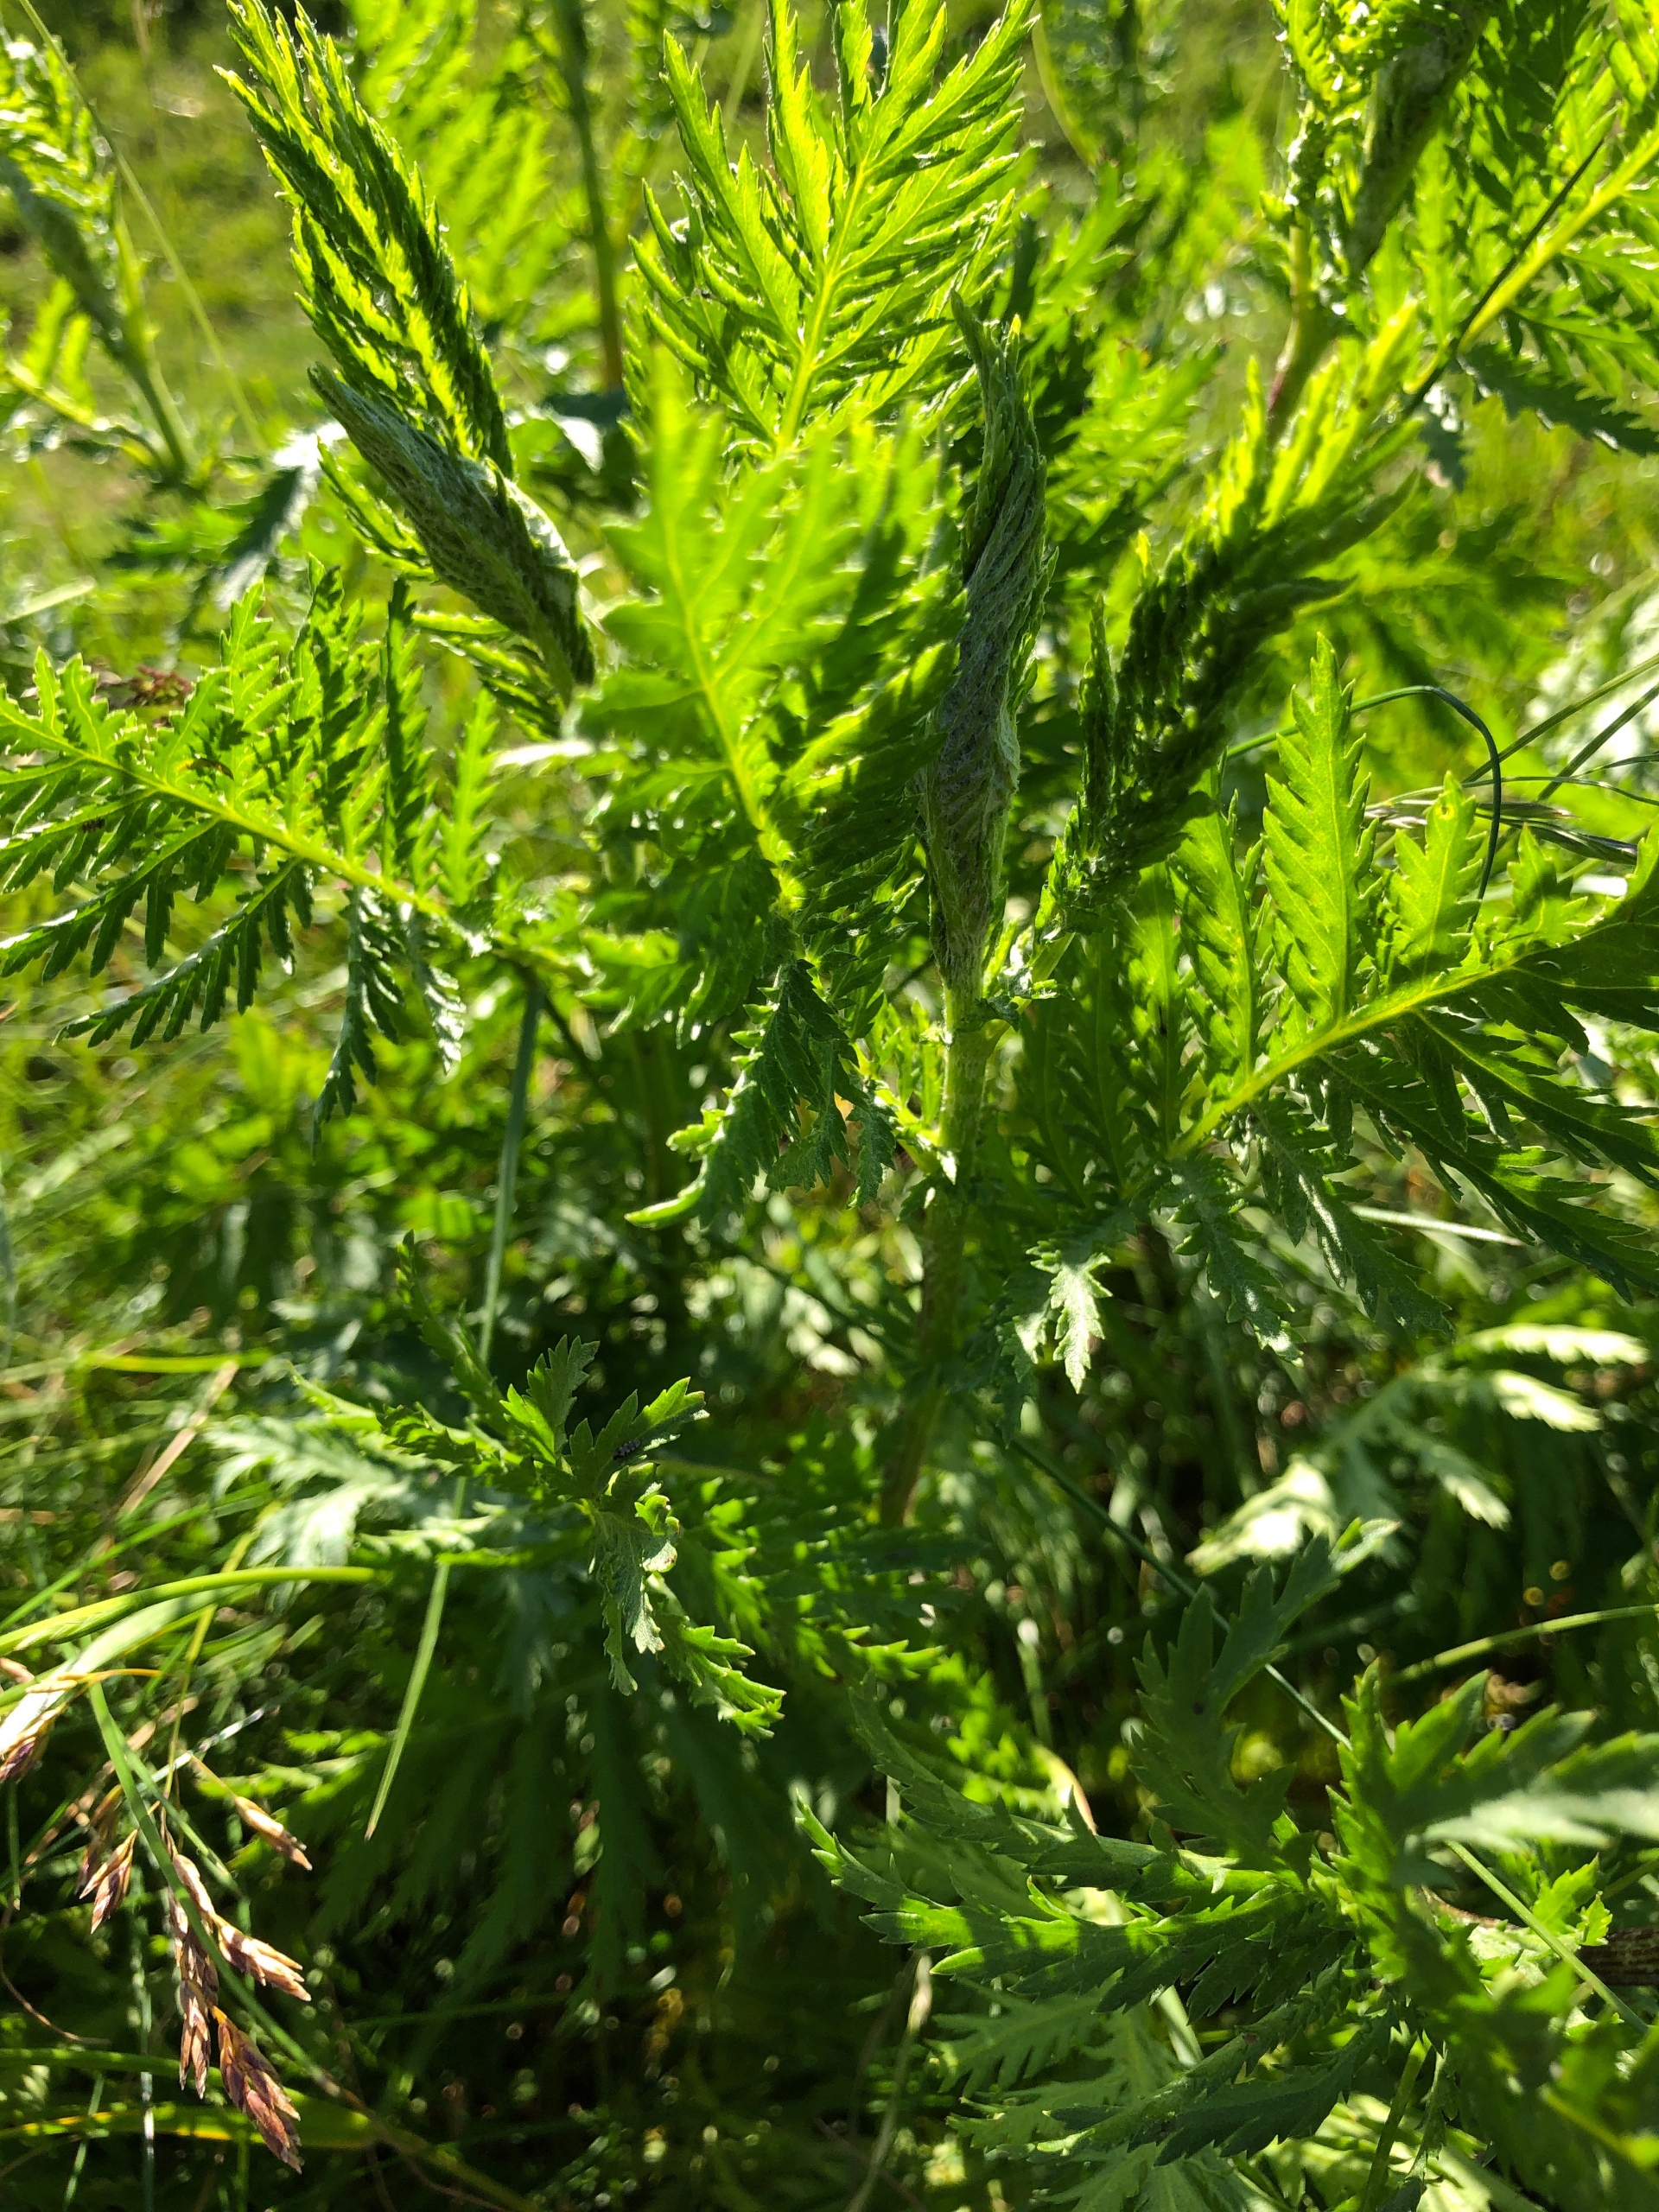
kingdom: Plantae
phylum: Tracheophyta
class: Magnoliopsida
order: Asterales
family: Asteraceae
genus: Tanacetum
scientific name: Tanacetum vulgare
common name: Rejnfan
